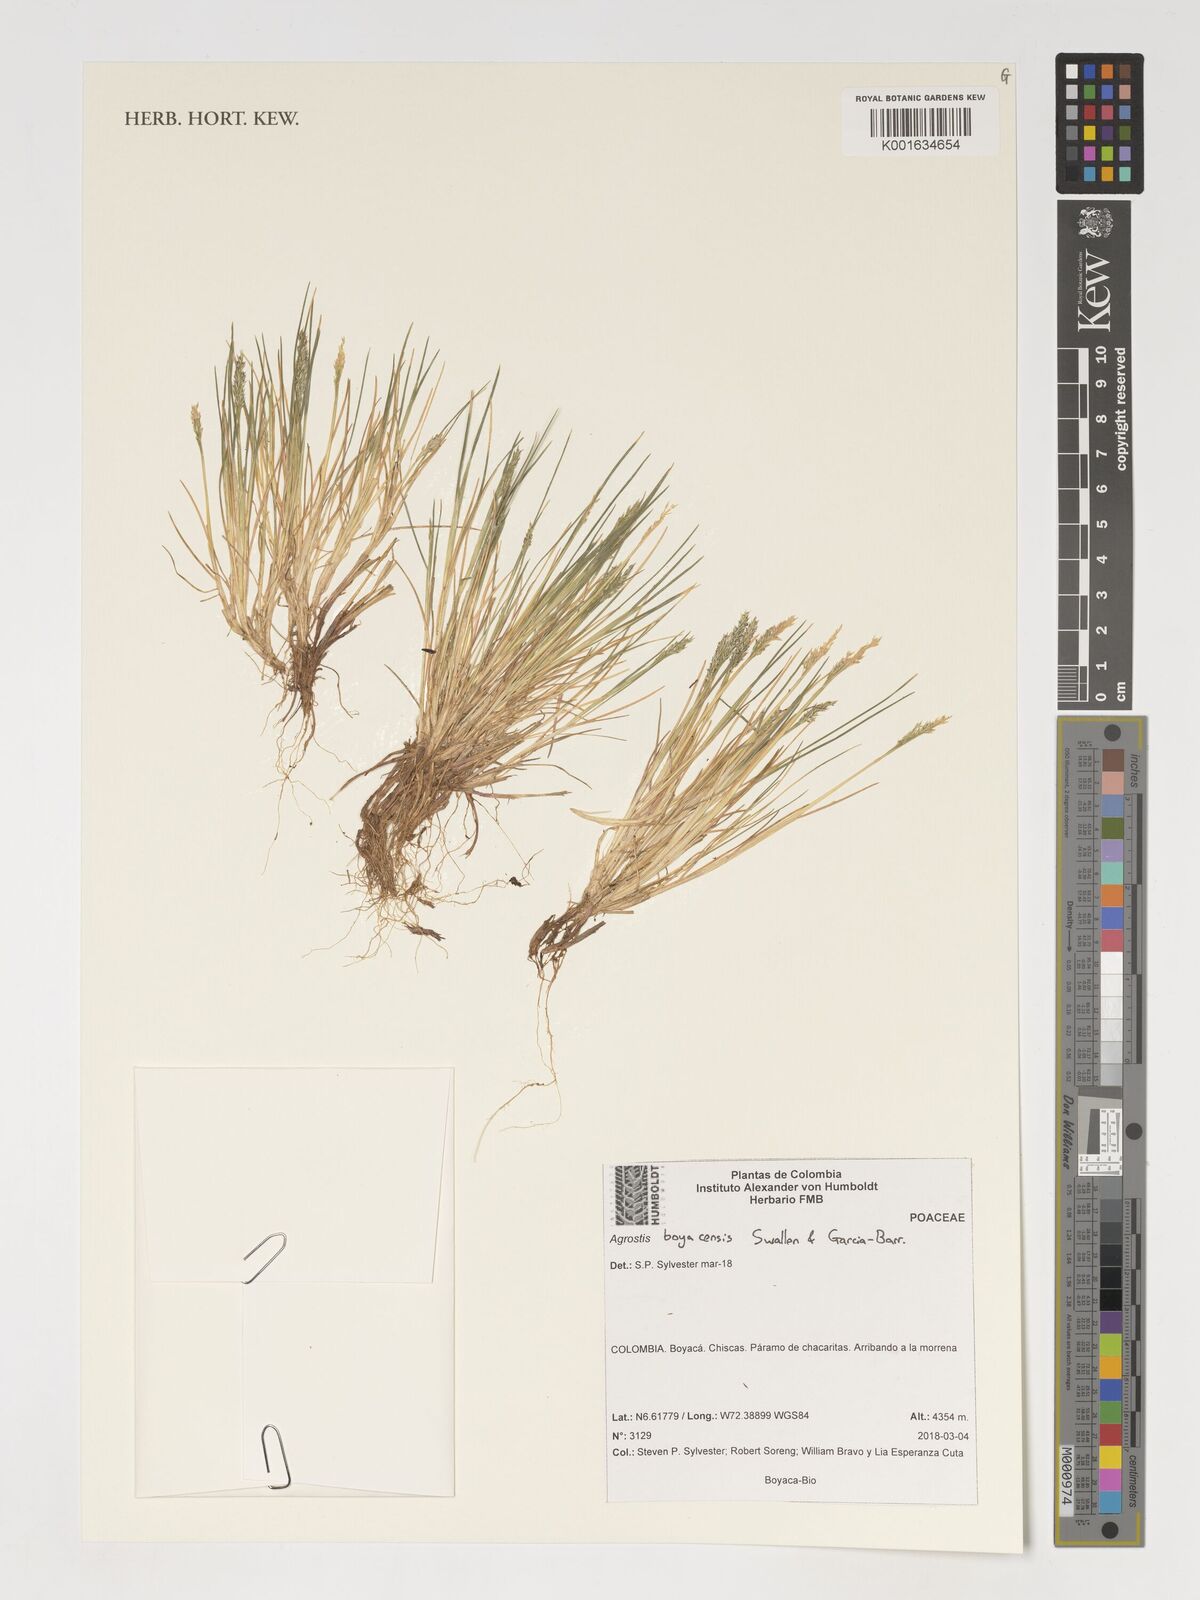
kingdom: Plantae
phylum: Tracheophyta
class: Liliopsida
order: Poales
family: Poaceae
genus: Agrostis
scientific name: Agrostis boyacensis
